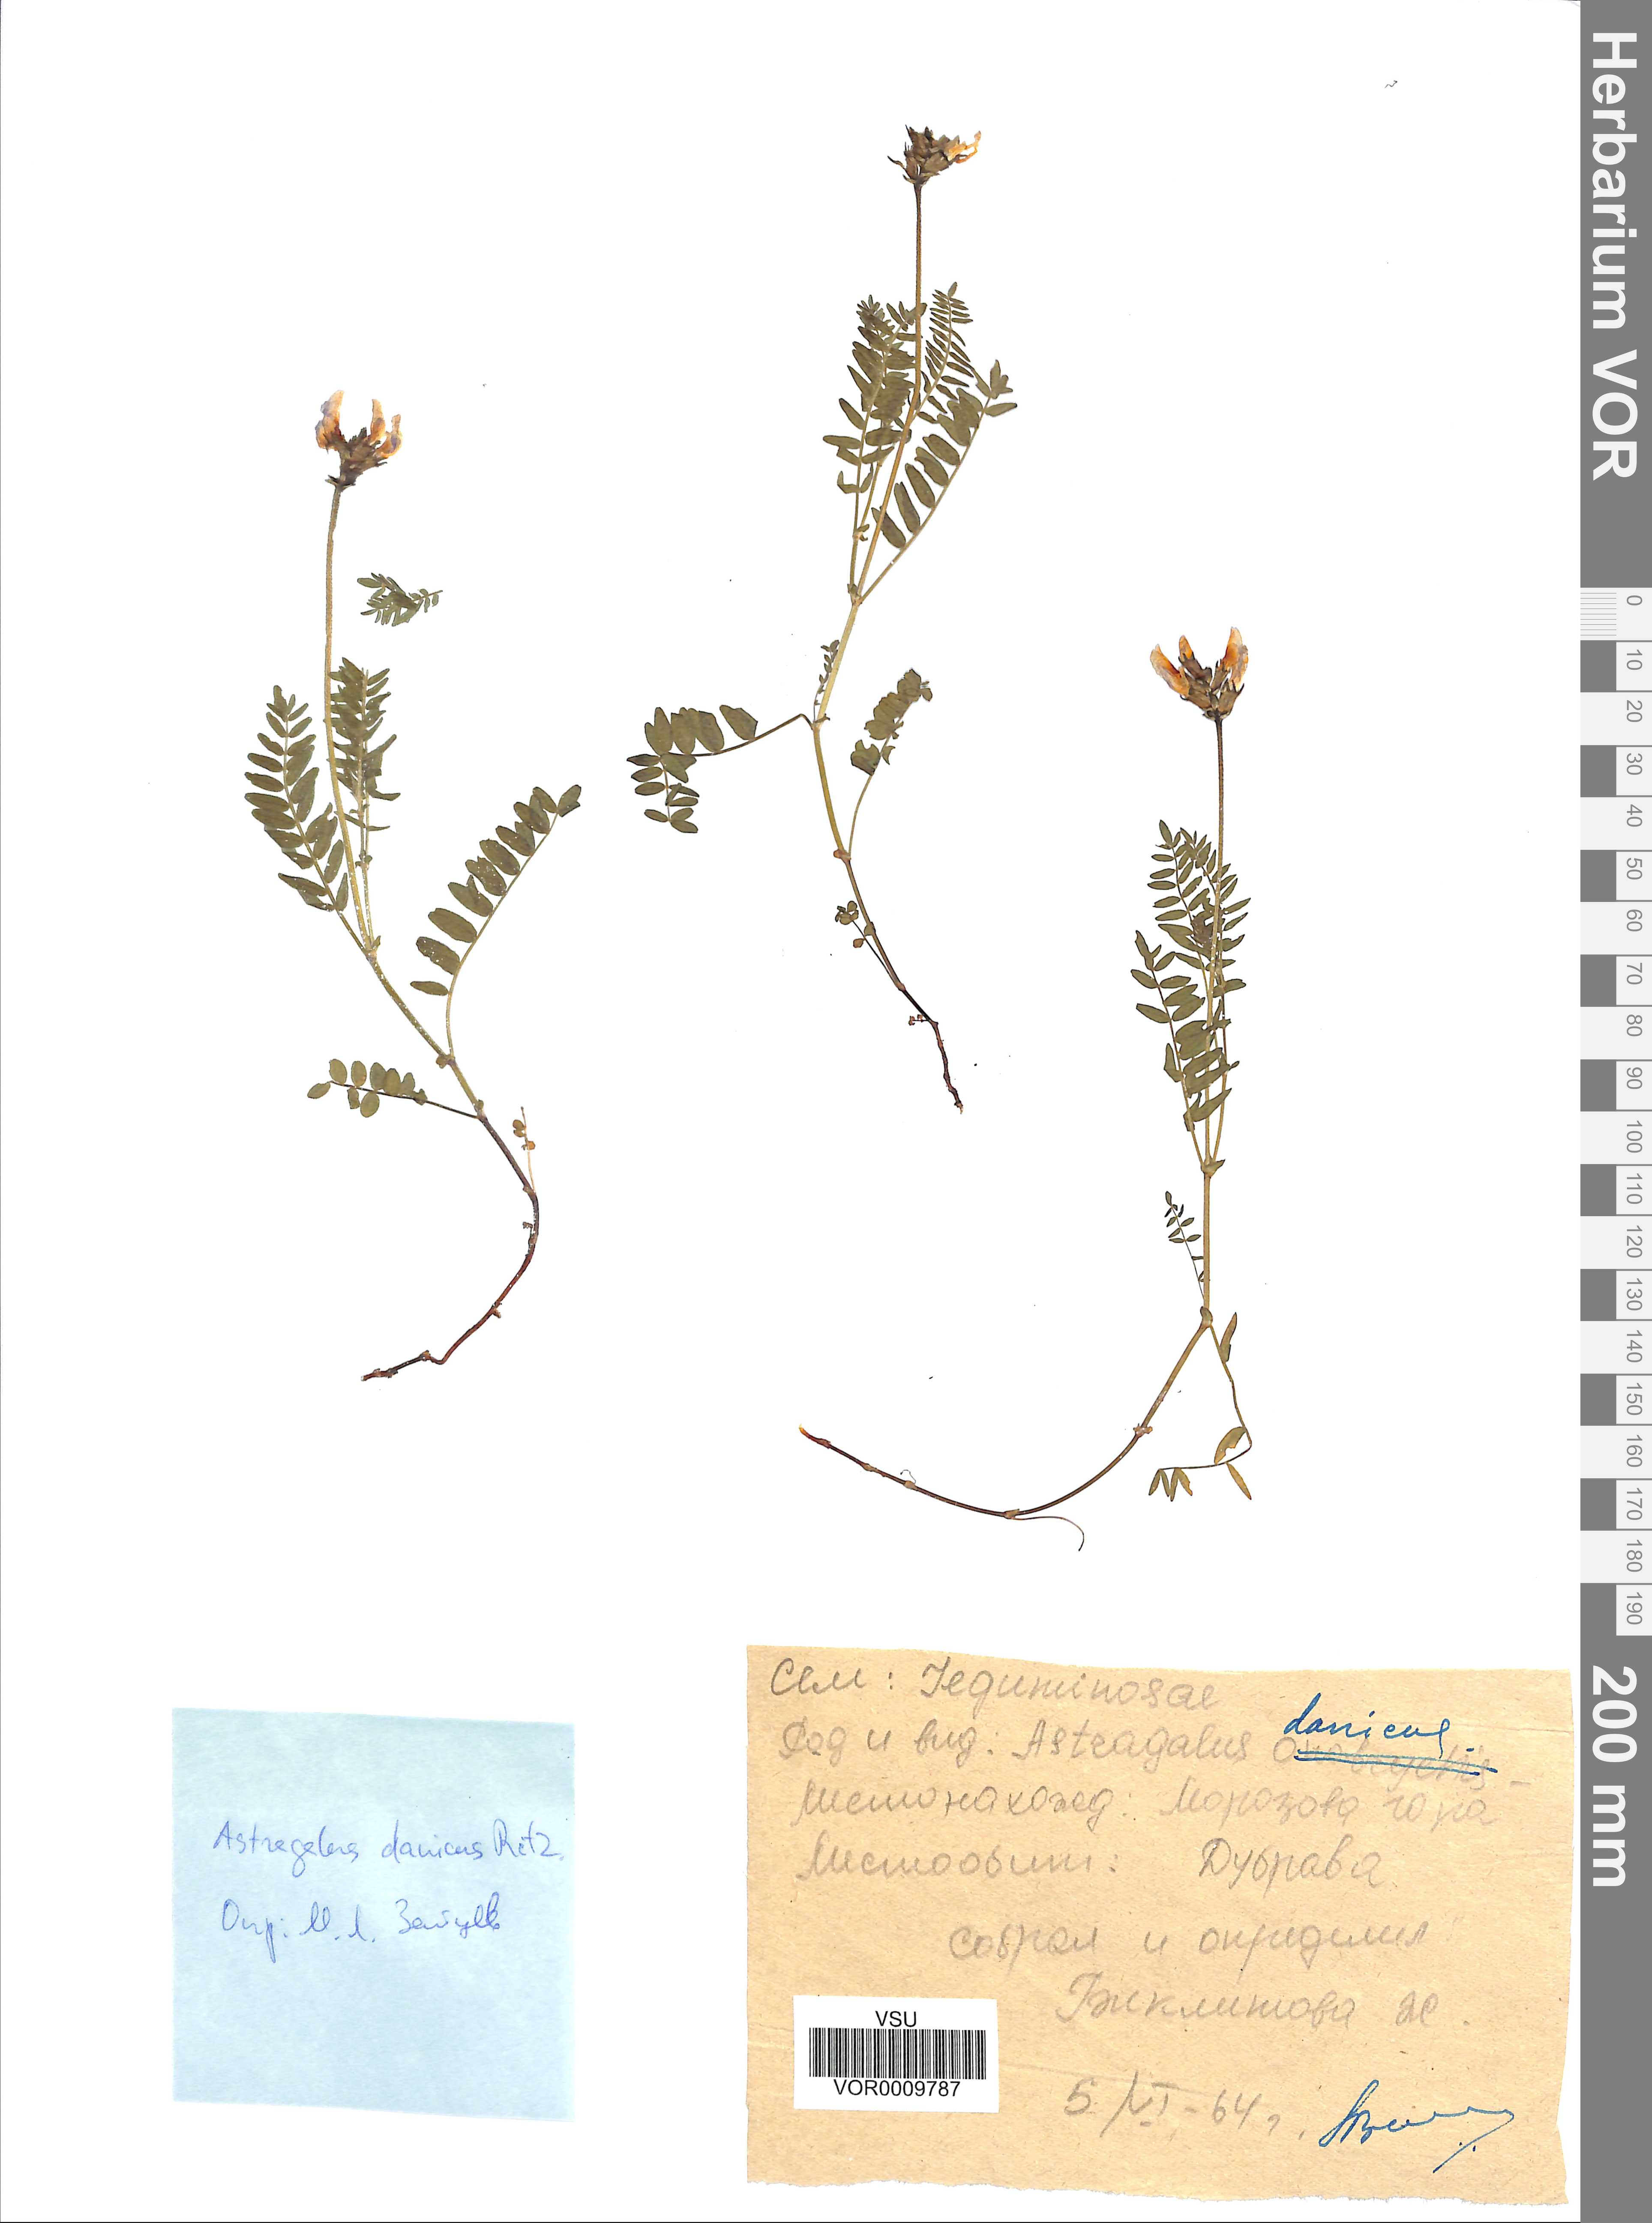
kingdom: Plantae
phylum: Tracheophyta
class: Magnoliopsida
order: Fabales
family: Fabaceae
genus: Astragalus
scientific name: Astragalus danicus
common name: Purple milk-vetch
